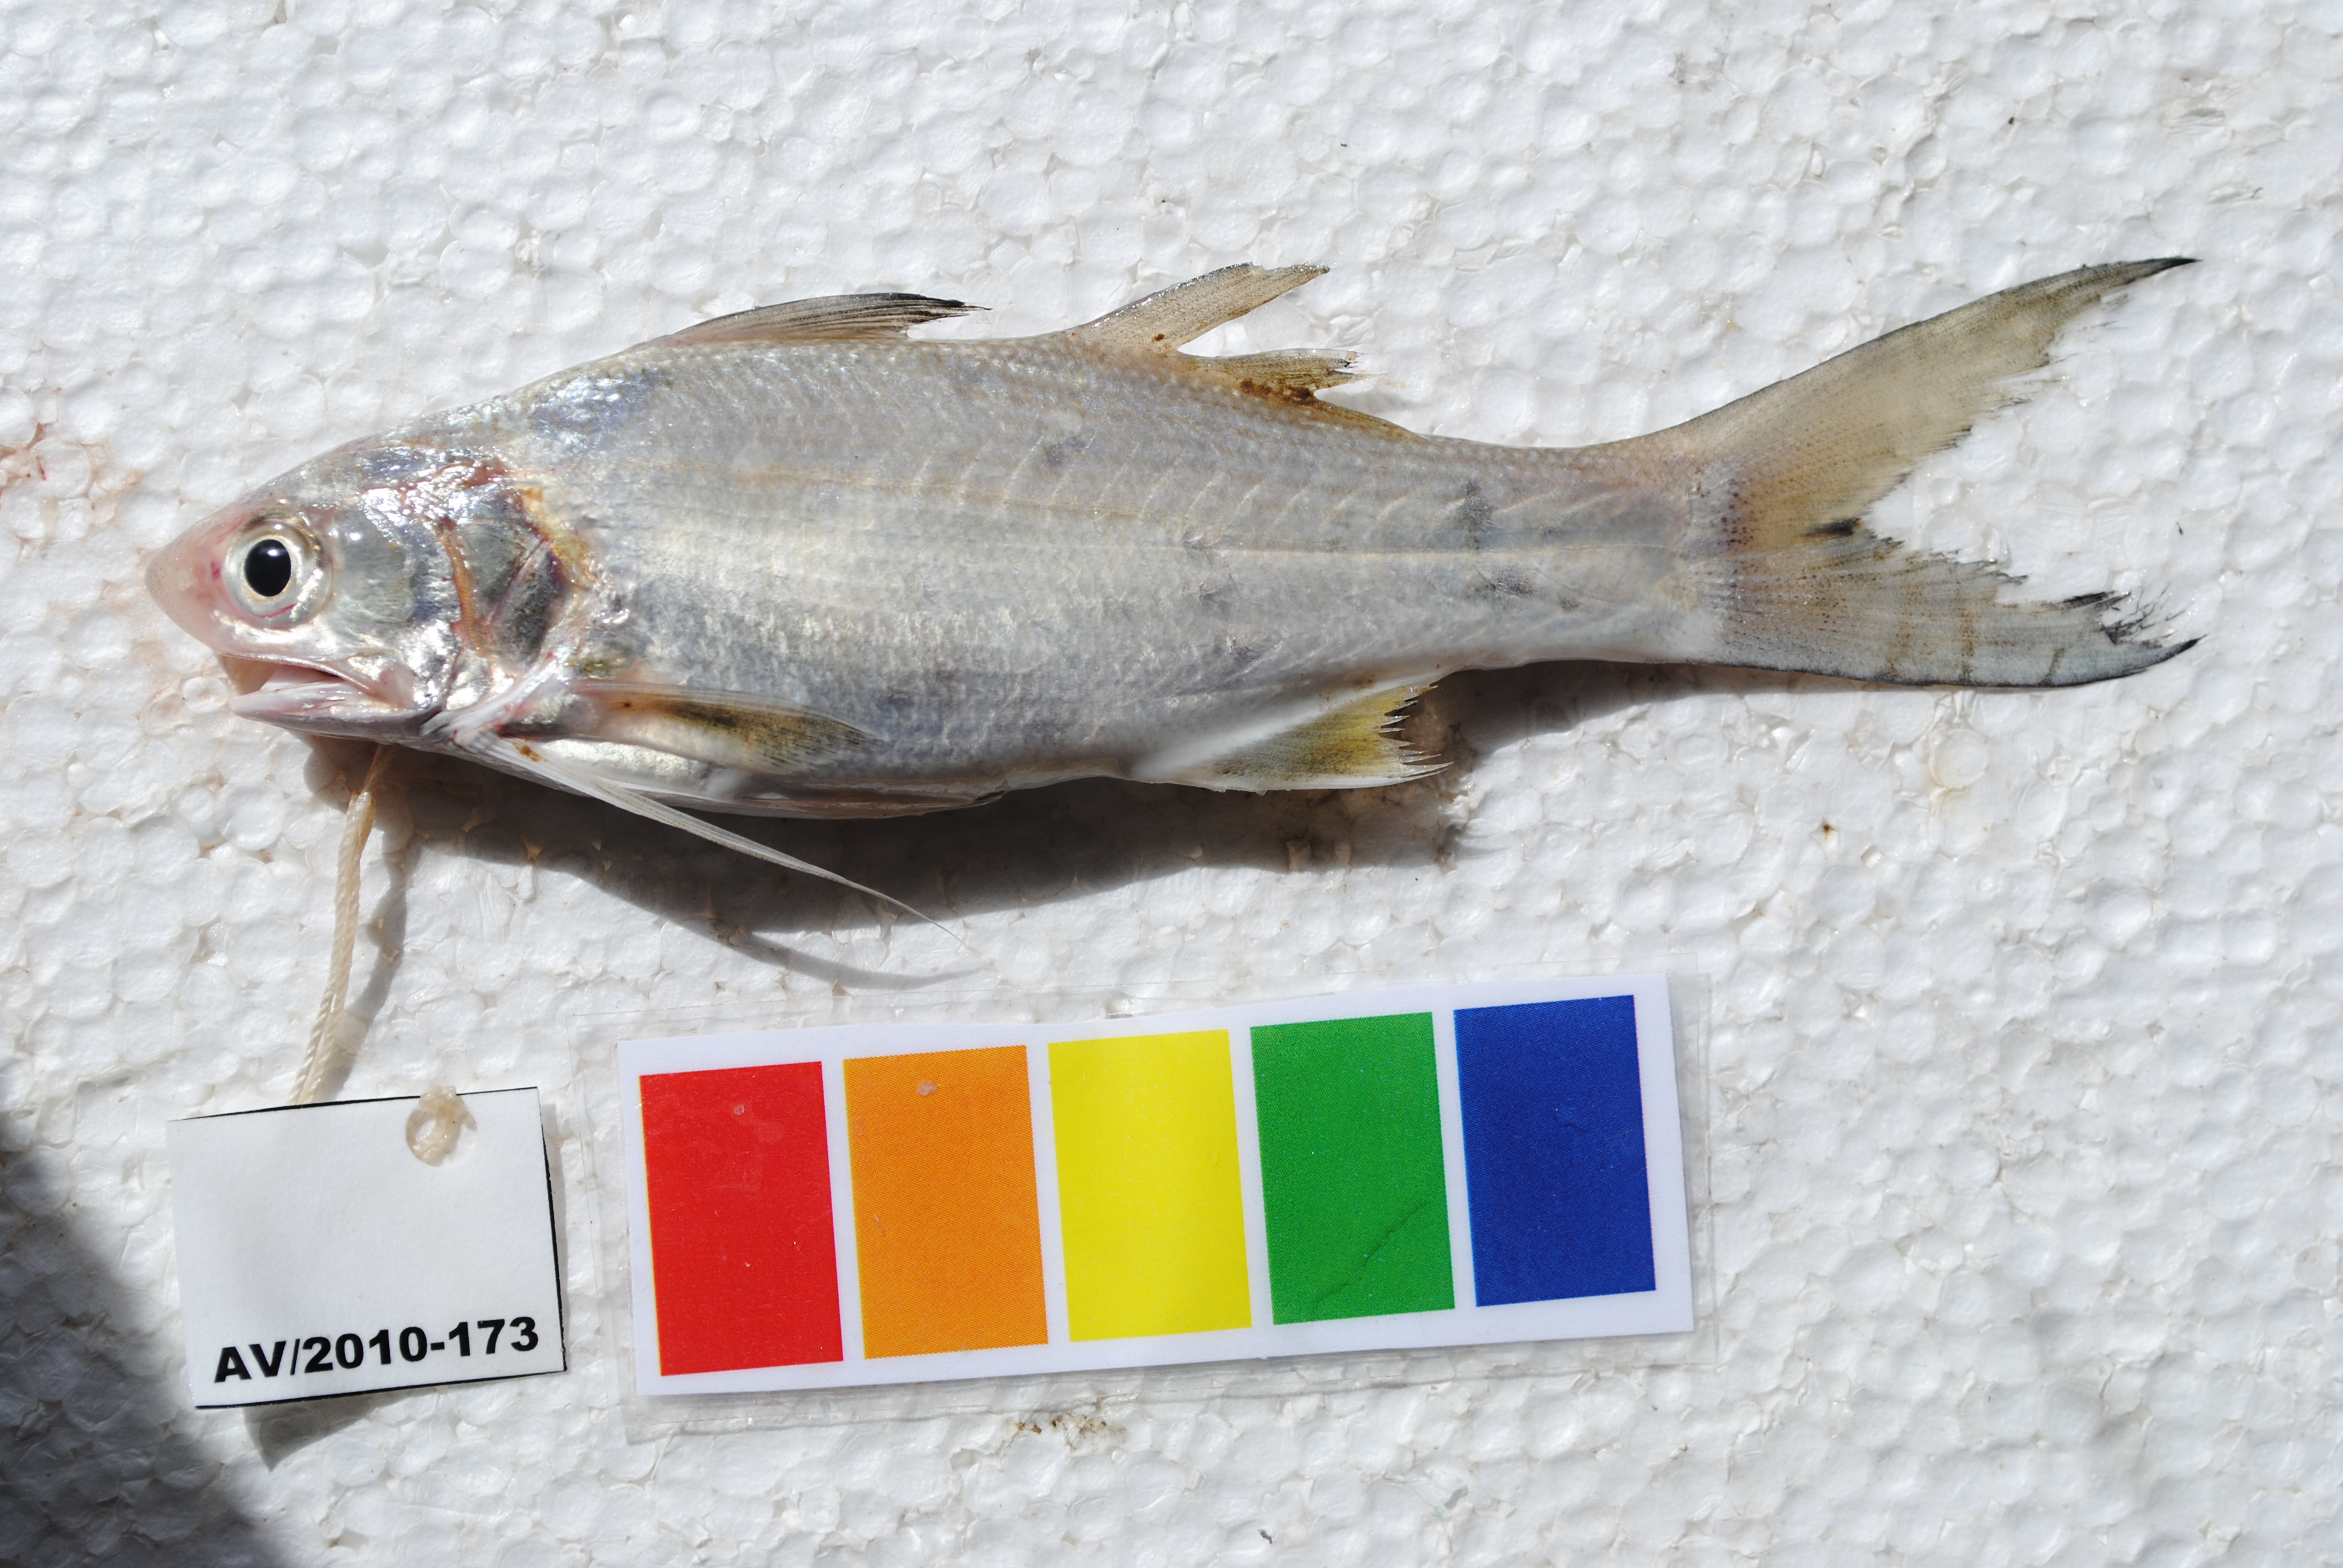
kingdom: Animalia
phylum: Chordata
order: Perciformes
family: Polynemidae
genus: Polydactylus
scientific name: Polydactylus plebeius
